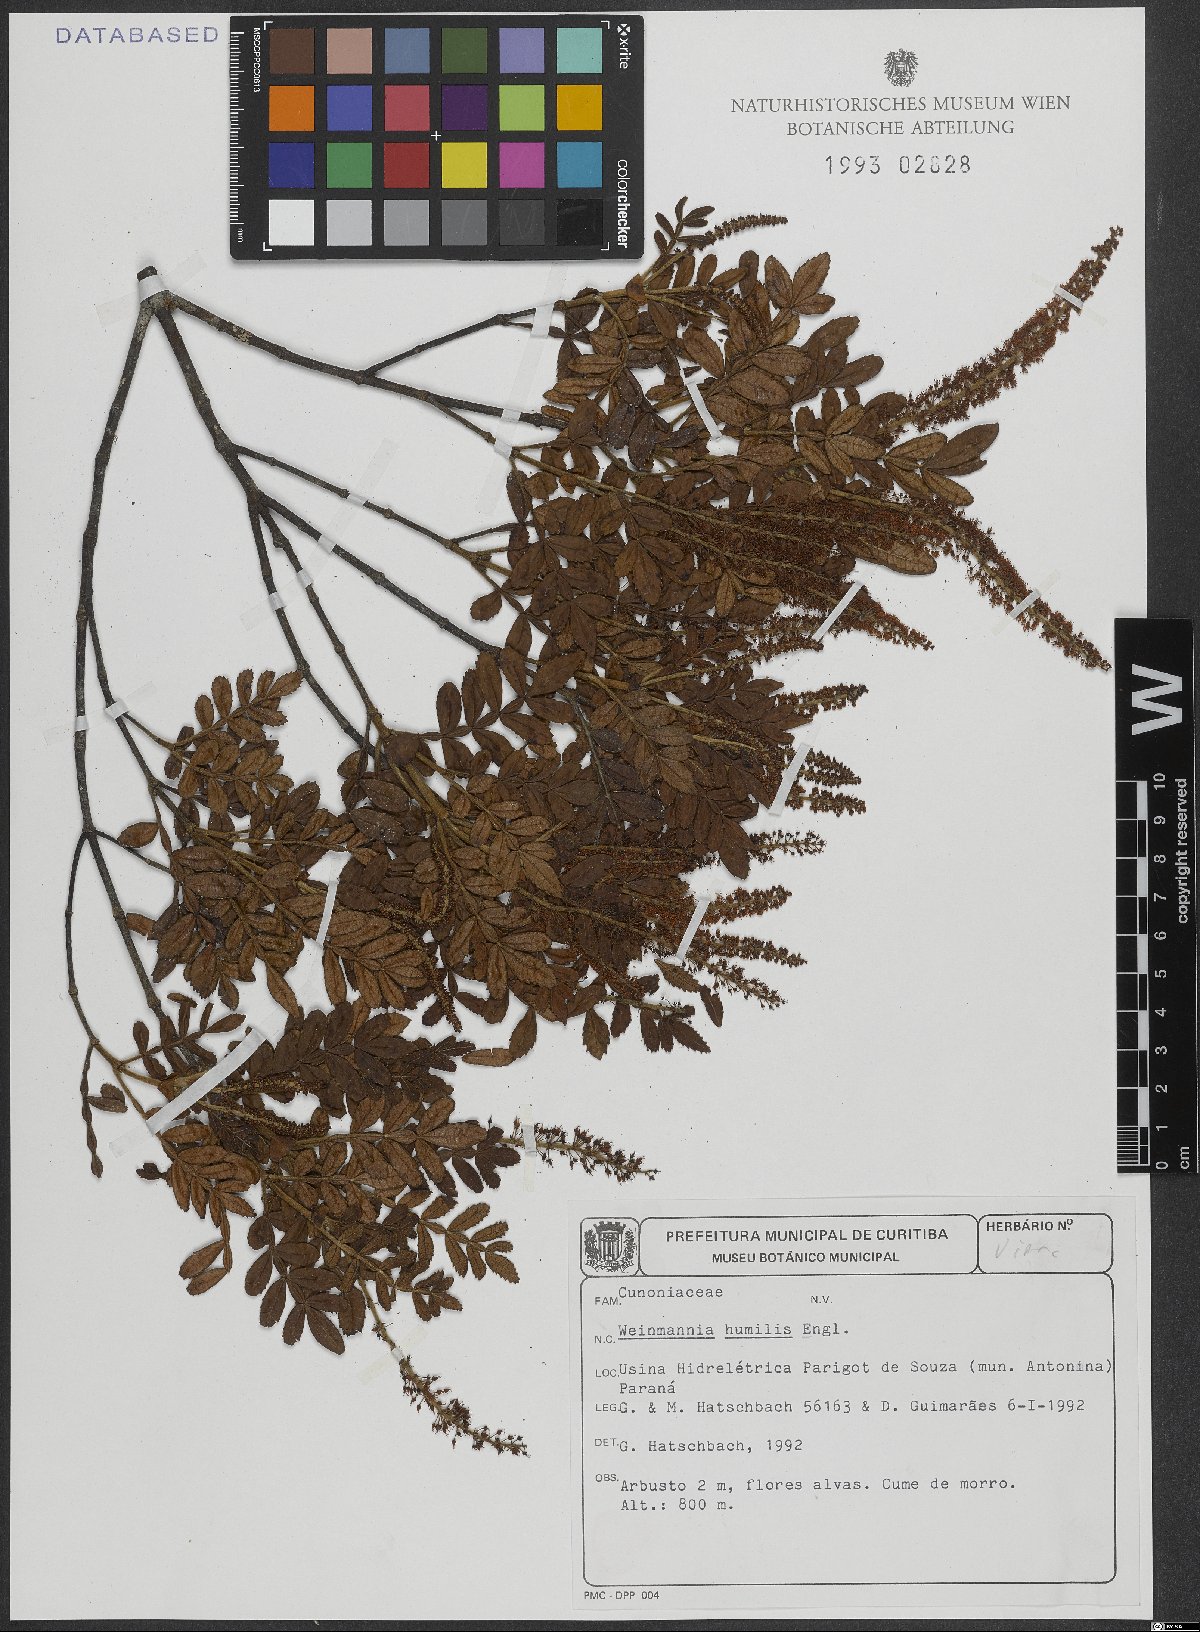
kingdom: Plantae
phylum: Tracheophyta
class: Magnoliopsida
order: Oxalidales
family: Cunoniaceae
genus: Weinmannia
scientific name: Weinmannia humilis
